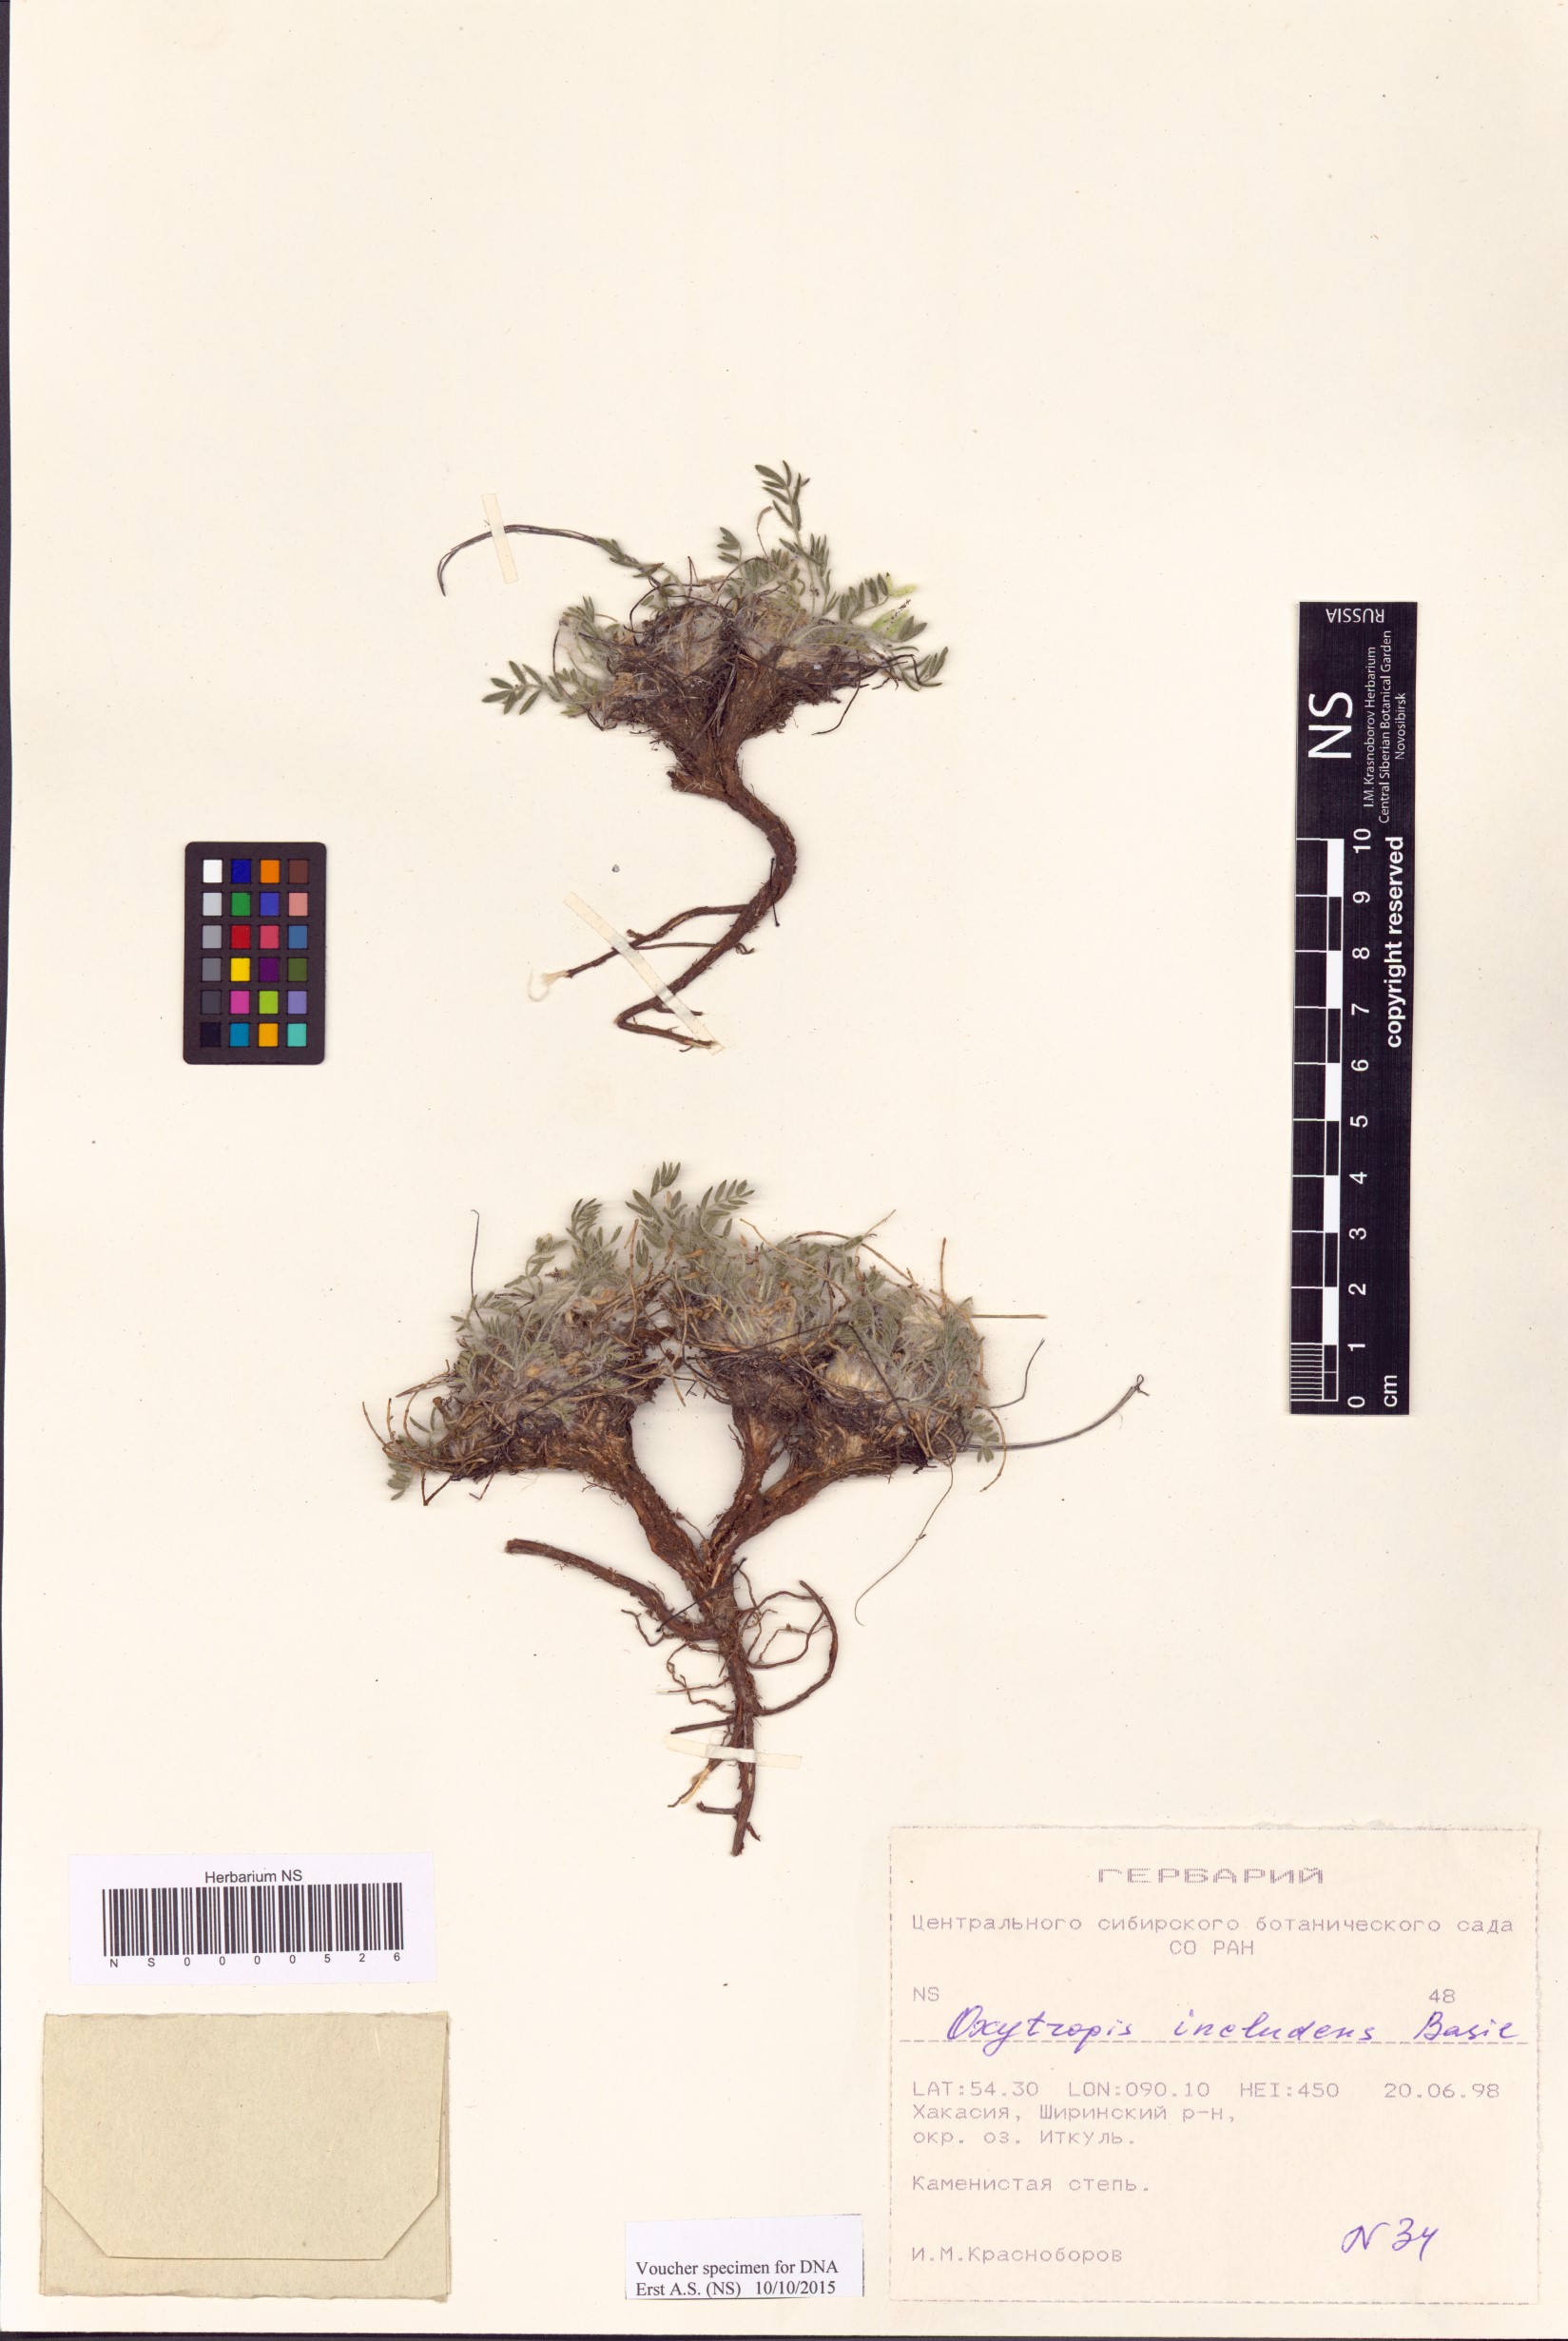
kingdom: Plantae
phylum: Tracheophyta
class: Magnoliopsida
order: Fabales
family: Fabaceae
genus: Oxytropis
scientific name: Oxytropis includens
